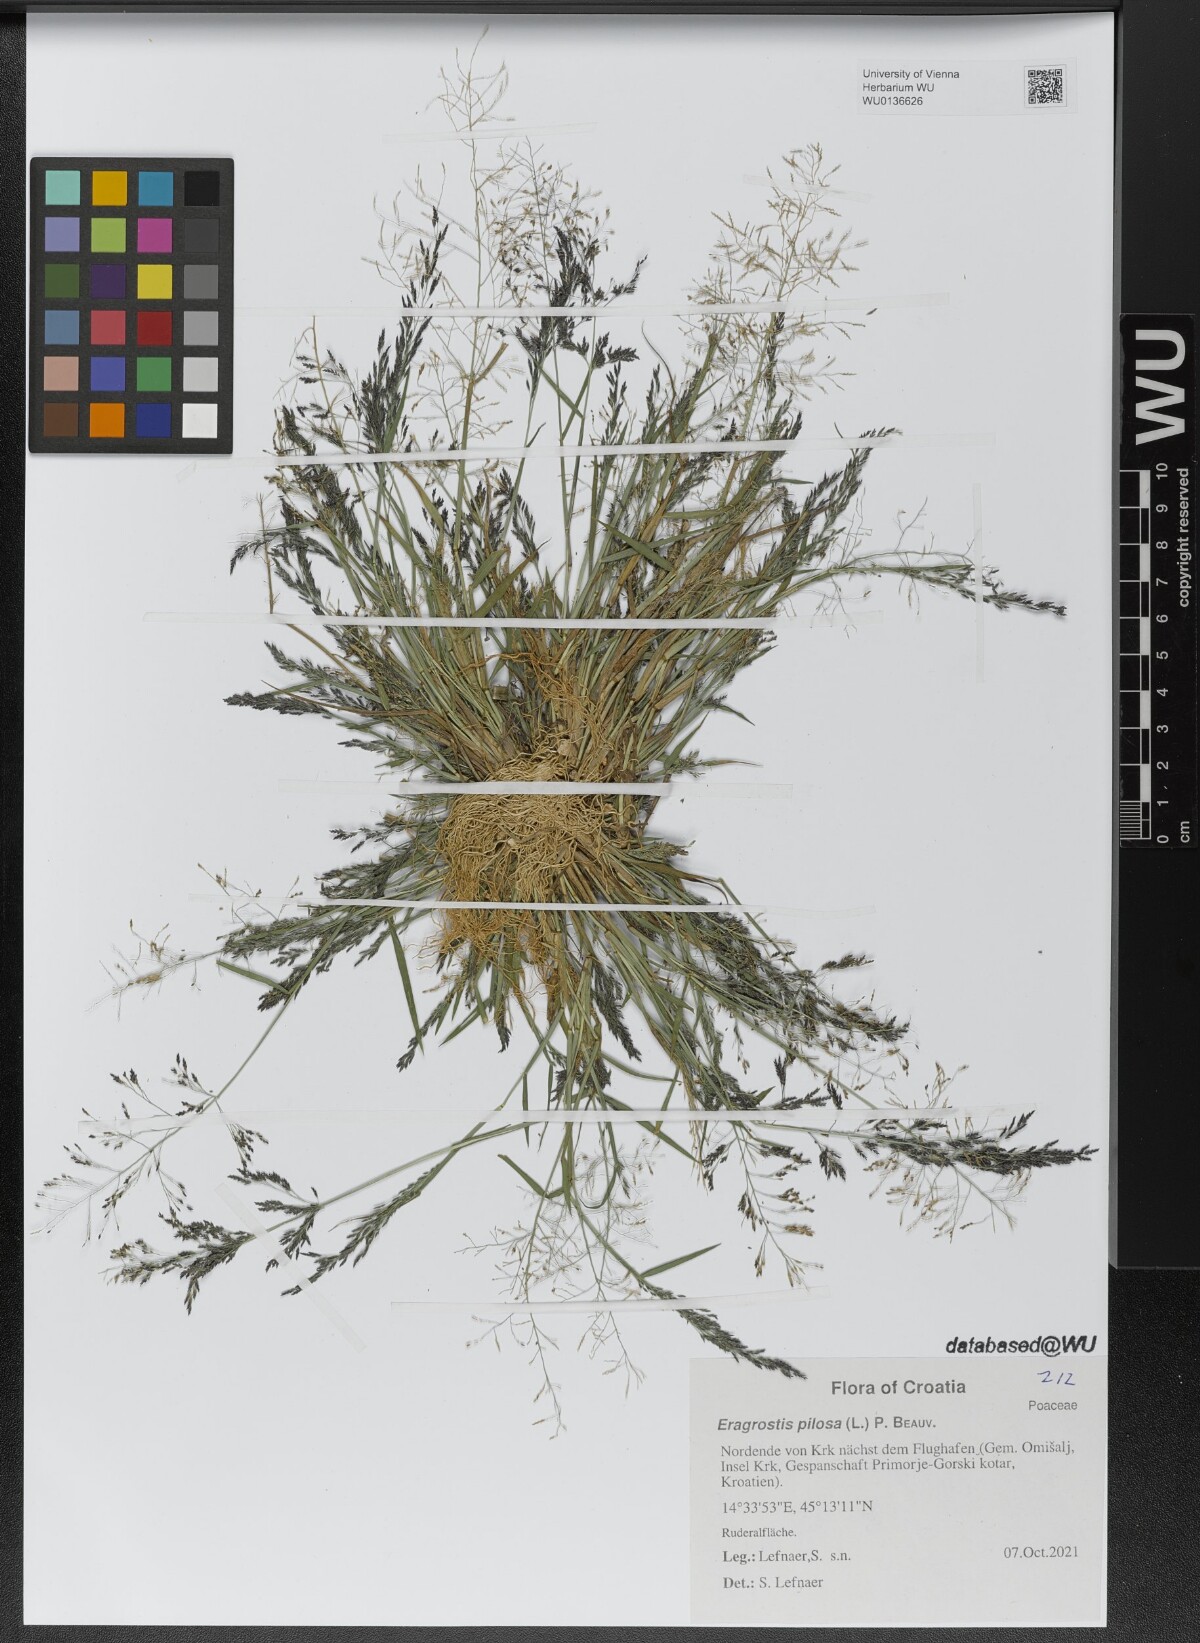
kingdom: Plantae
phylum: Tracheophyta
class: Liliopsida
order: Poales
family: Poaceae
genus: Eragrostis
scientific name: Eragrostis pilosa
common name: Indian lovegrass
